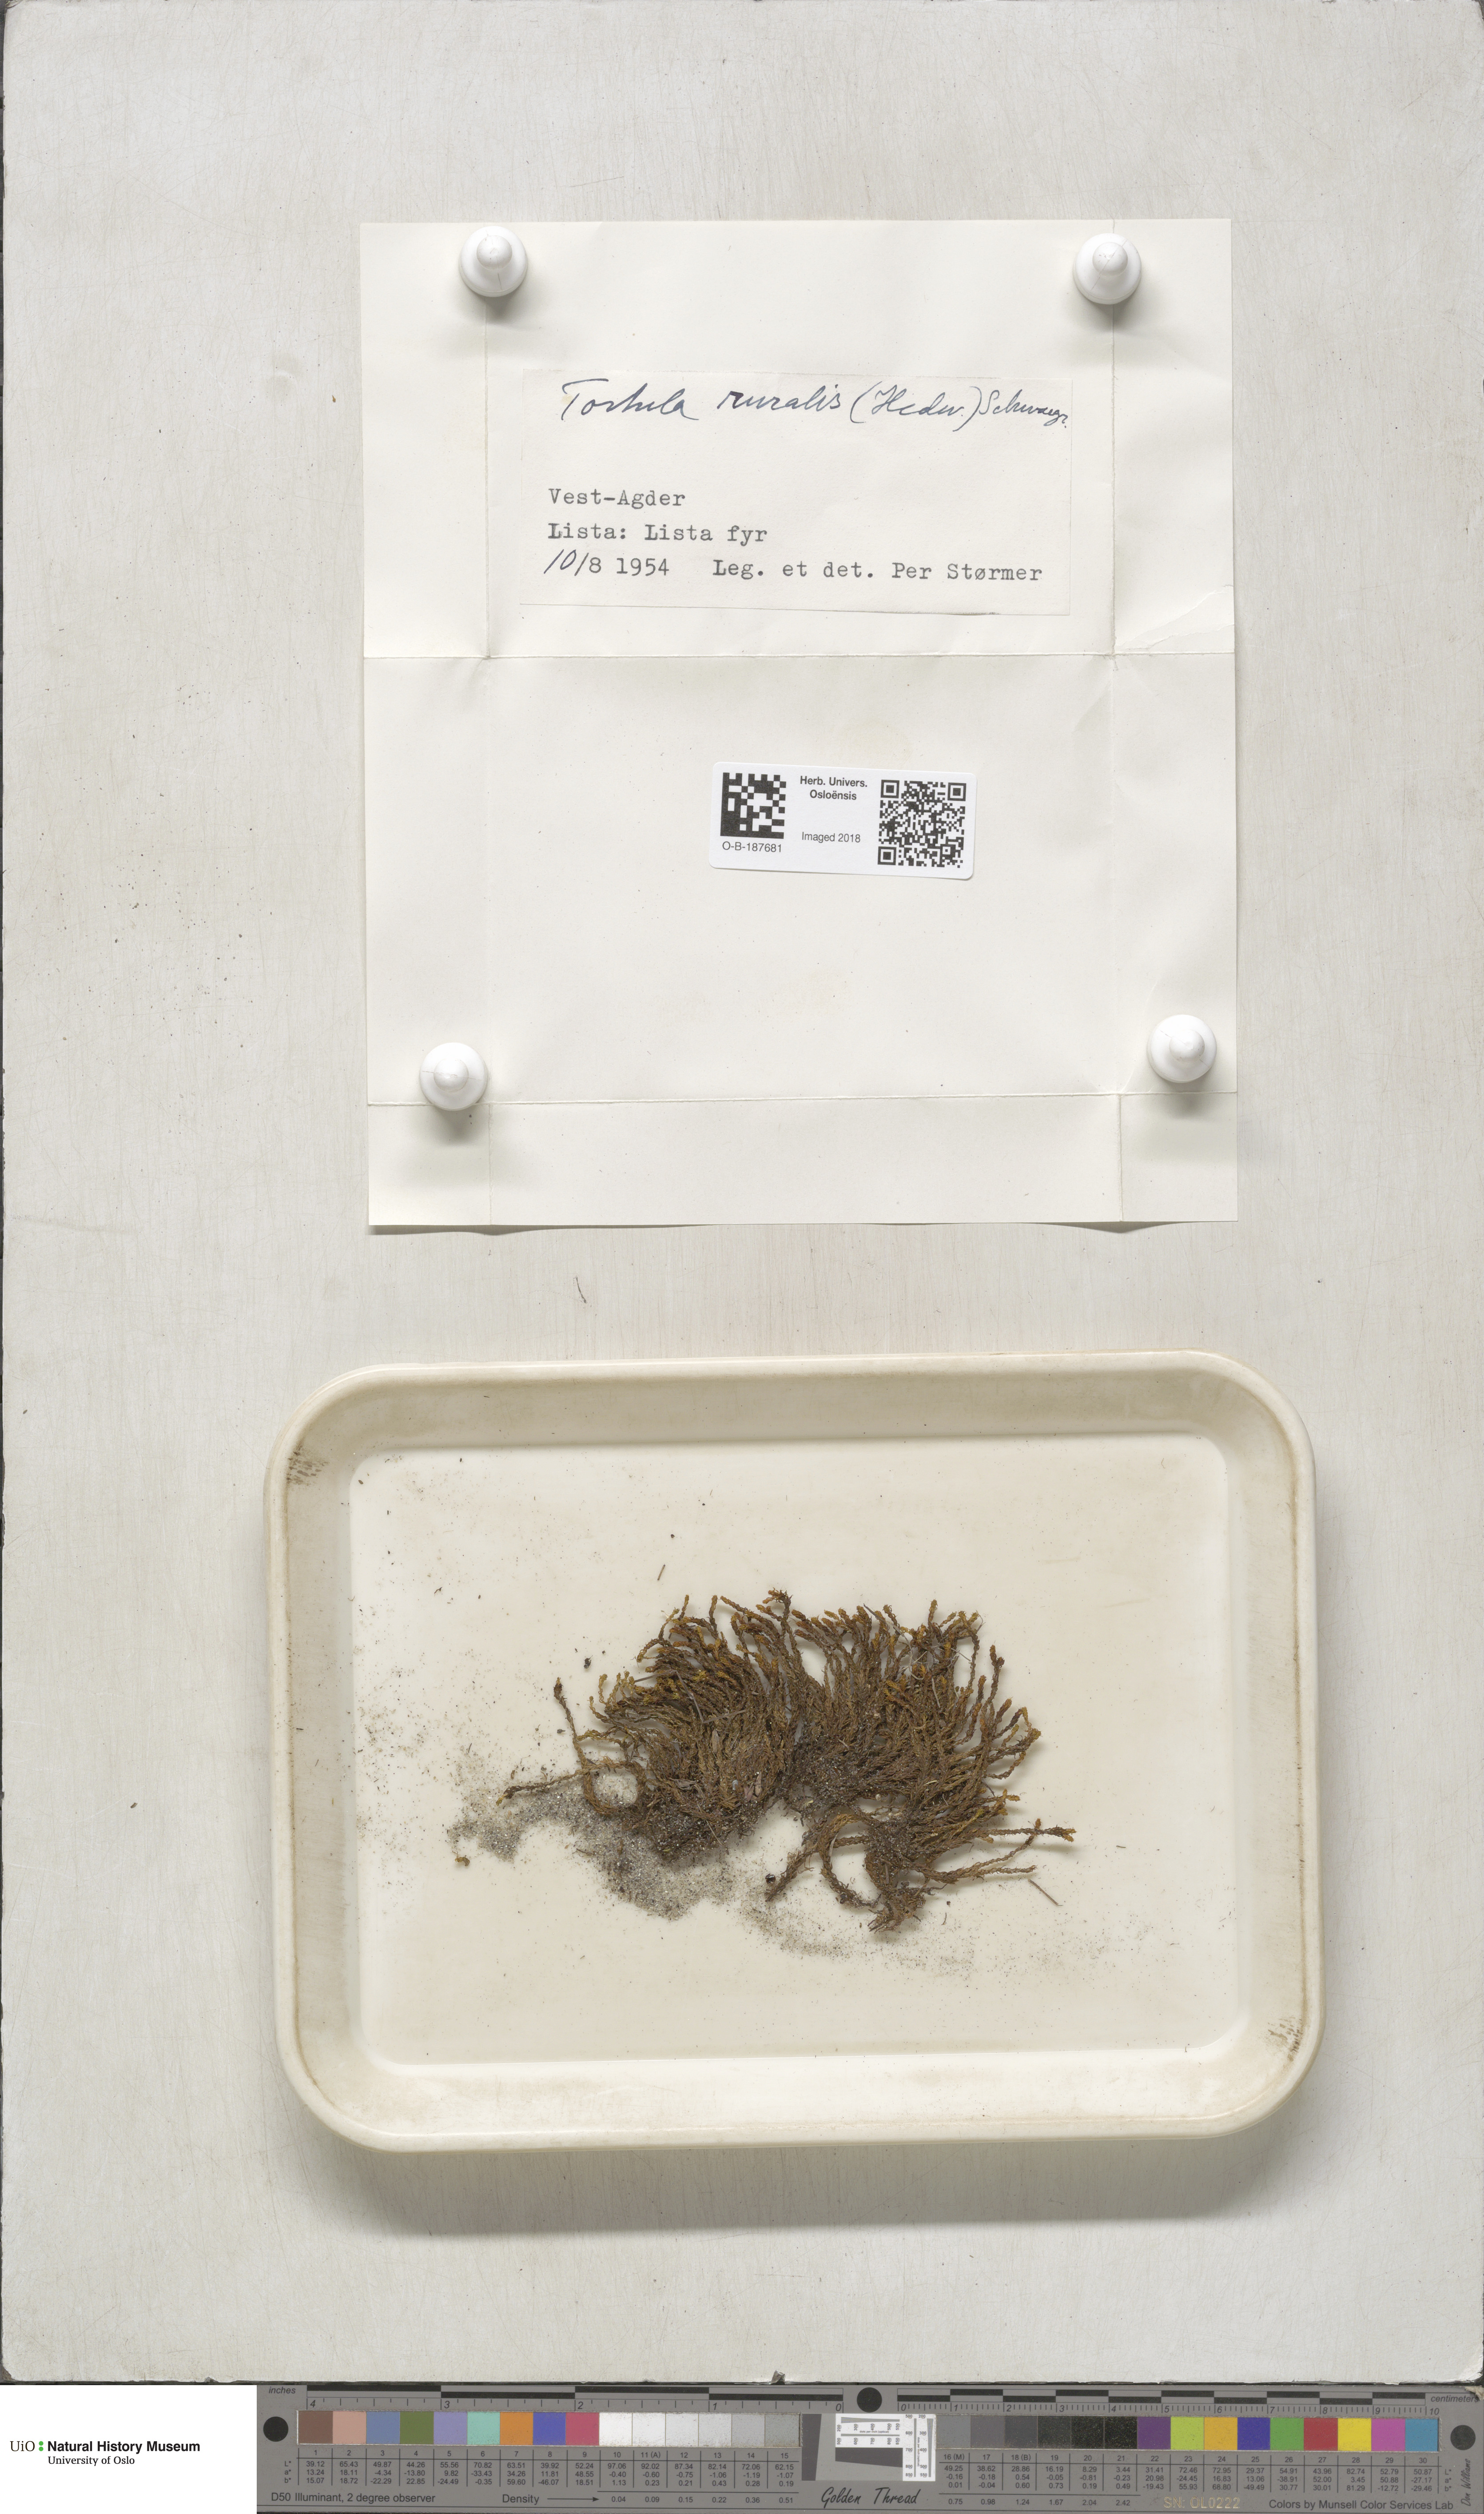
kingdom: Plantae
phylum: Bryophyta
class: Bryopsida
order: Pottiales
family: Pottiaceae
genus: Syntrichia
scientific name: Syntrichia ruralis
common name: Sidewalk screw moss
